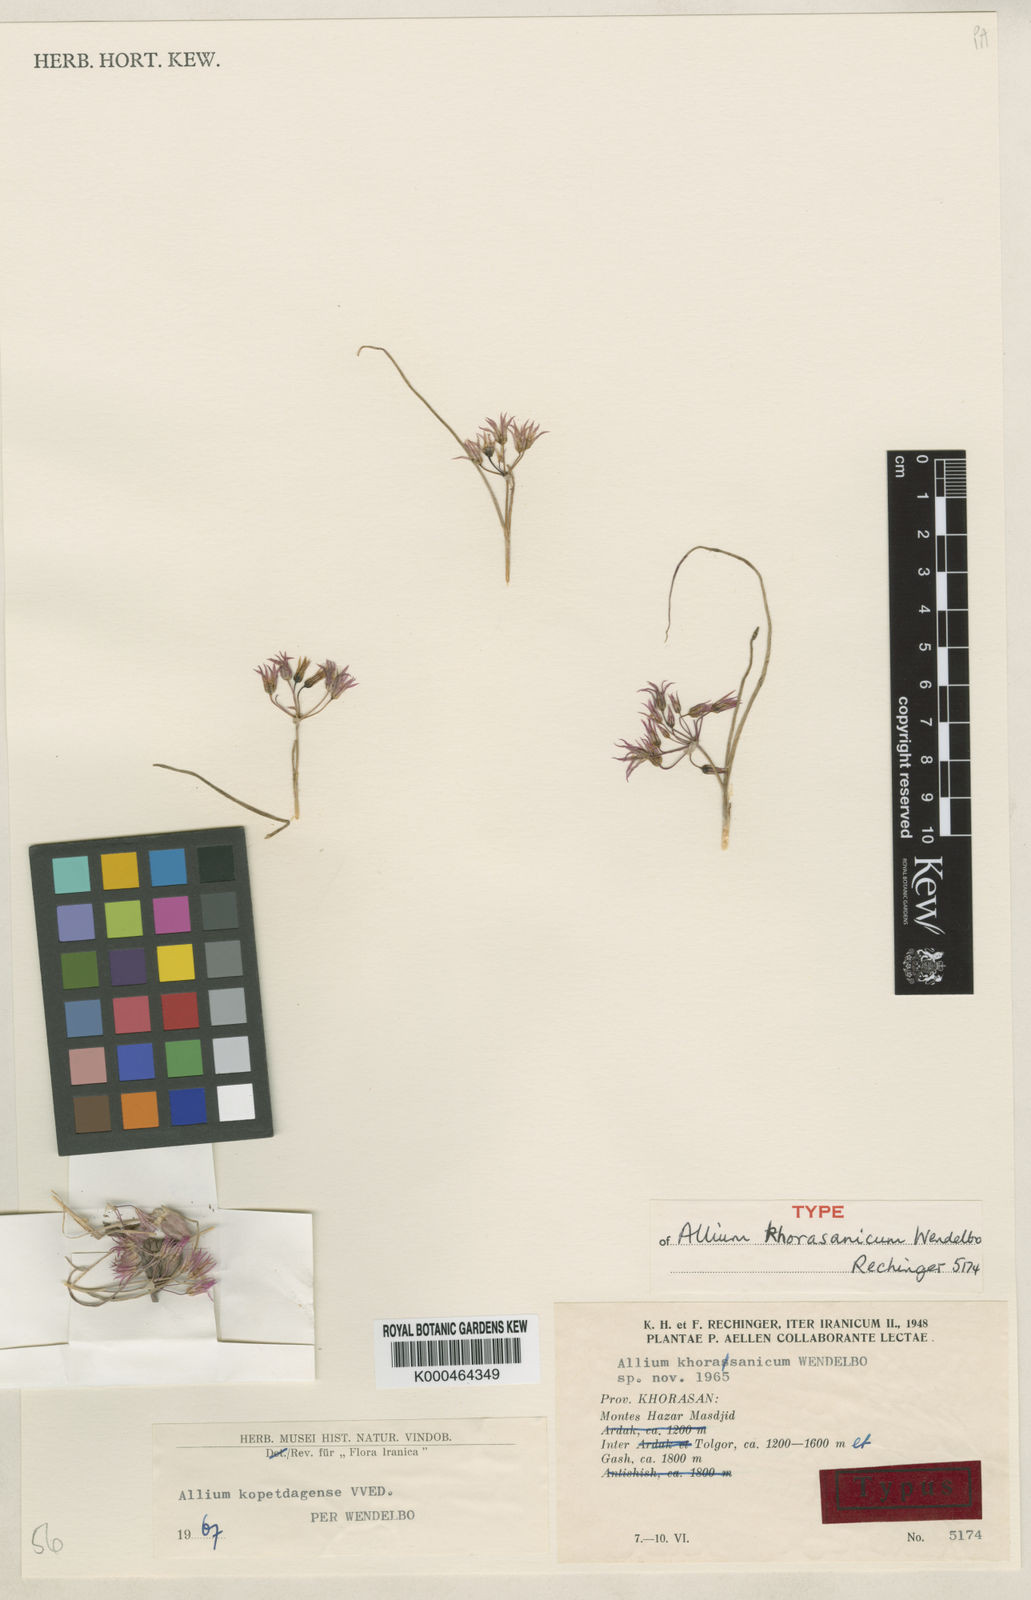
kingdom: Plantae
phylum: Tracheophyta
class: Liliopsida
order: Asparagales
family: Amaryllidaceae
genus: Allium
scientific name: Allium kopetdagense
